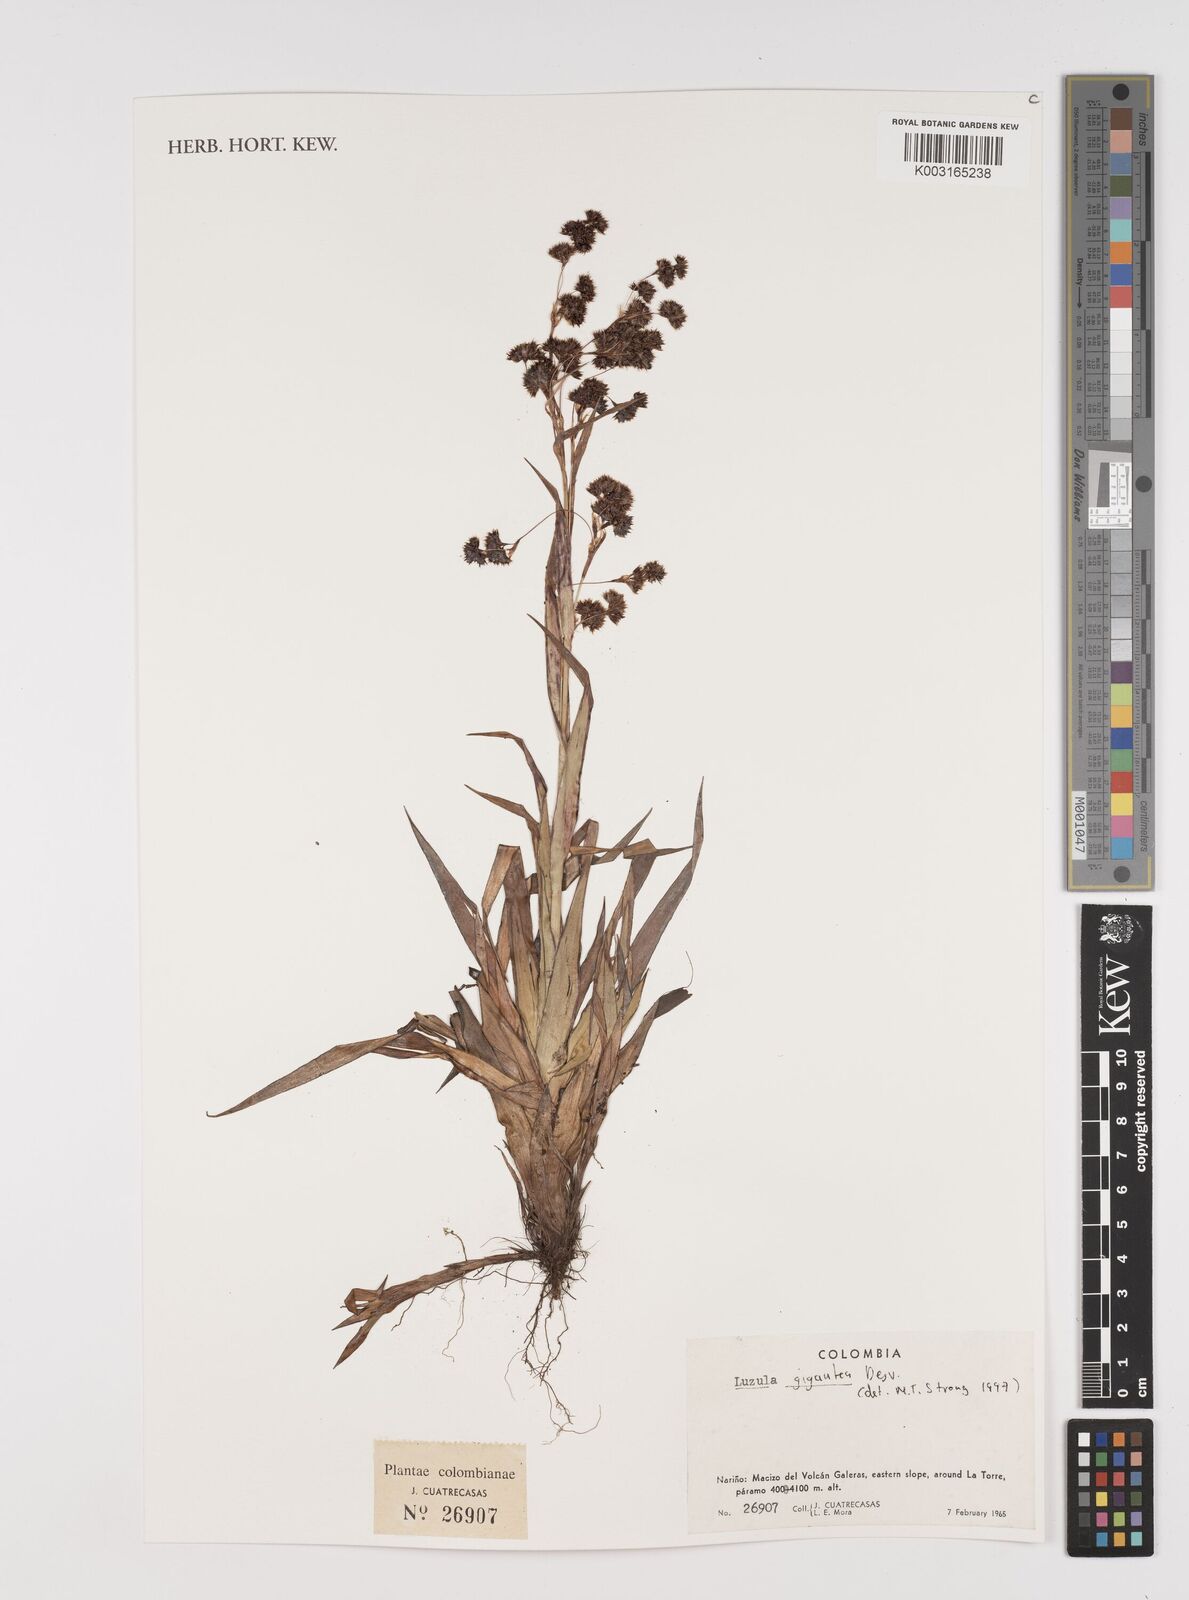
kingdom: Plantae
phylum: Tracheophyta
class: Liliopsida
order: Poales
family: Juncaceae
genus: Luzula
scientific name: Luzula gigantea
